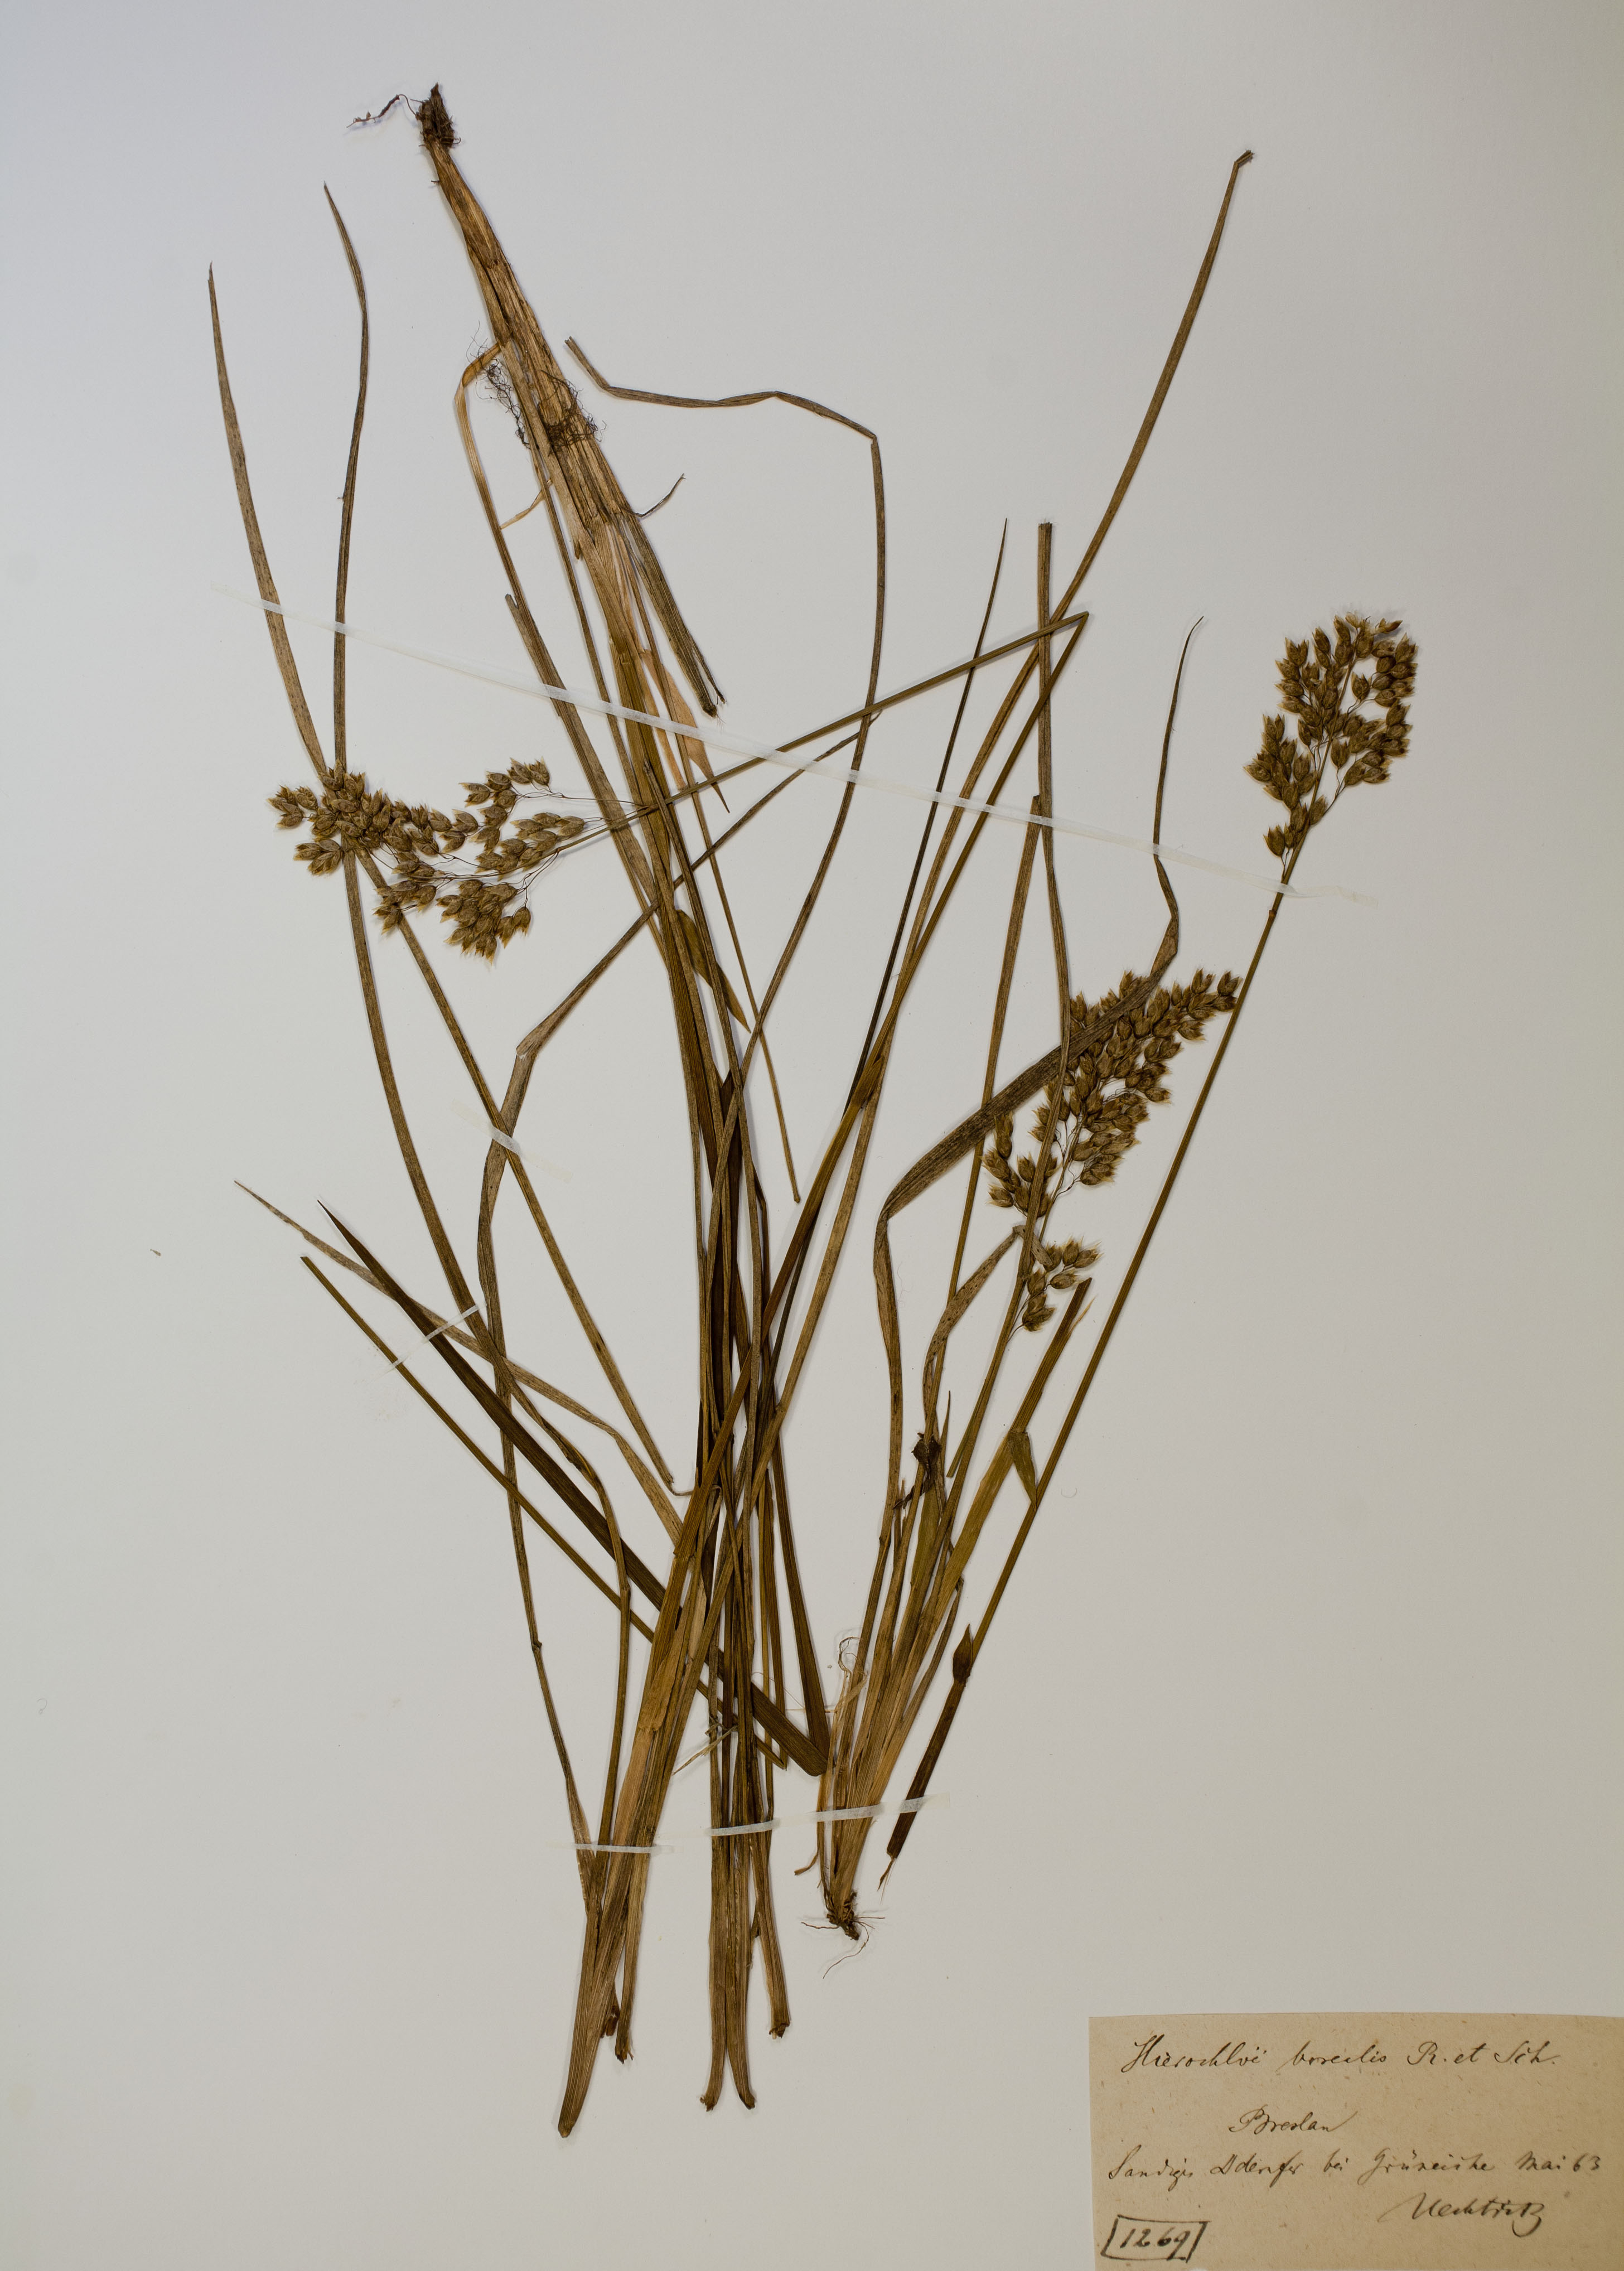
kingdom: Plantae
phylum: Tracheophyta
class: Liliopsida
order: Poales
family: Poaceae
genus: Anthoxanthum
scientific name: Anthoxanthum nitens
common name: Holy grass
